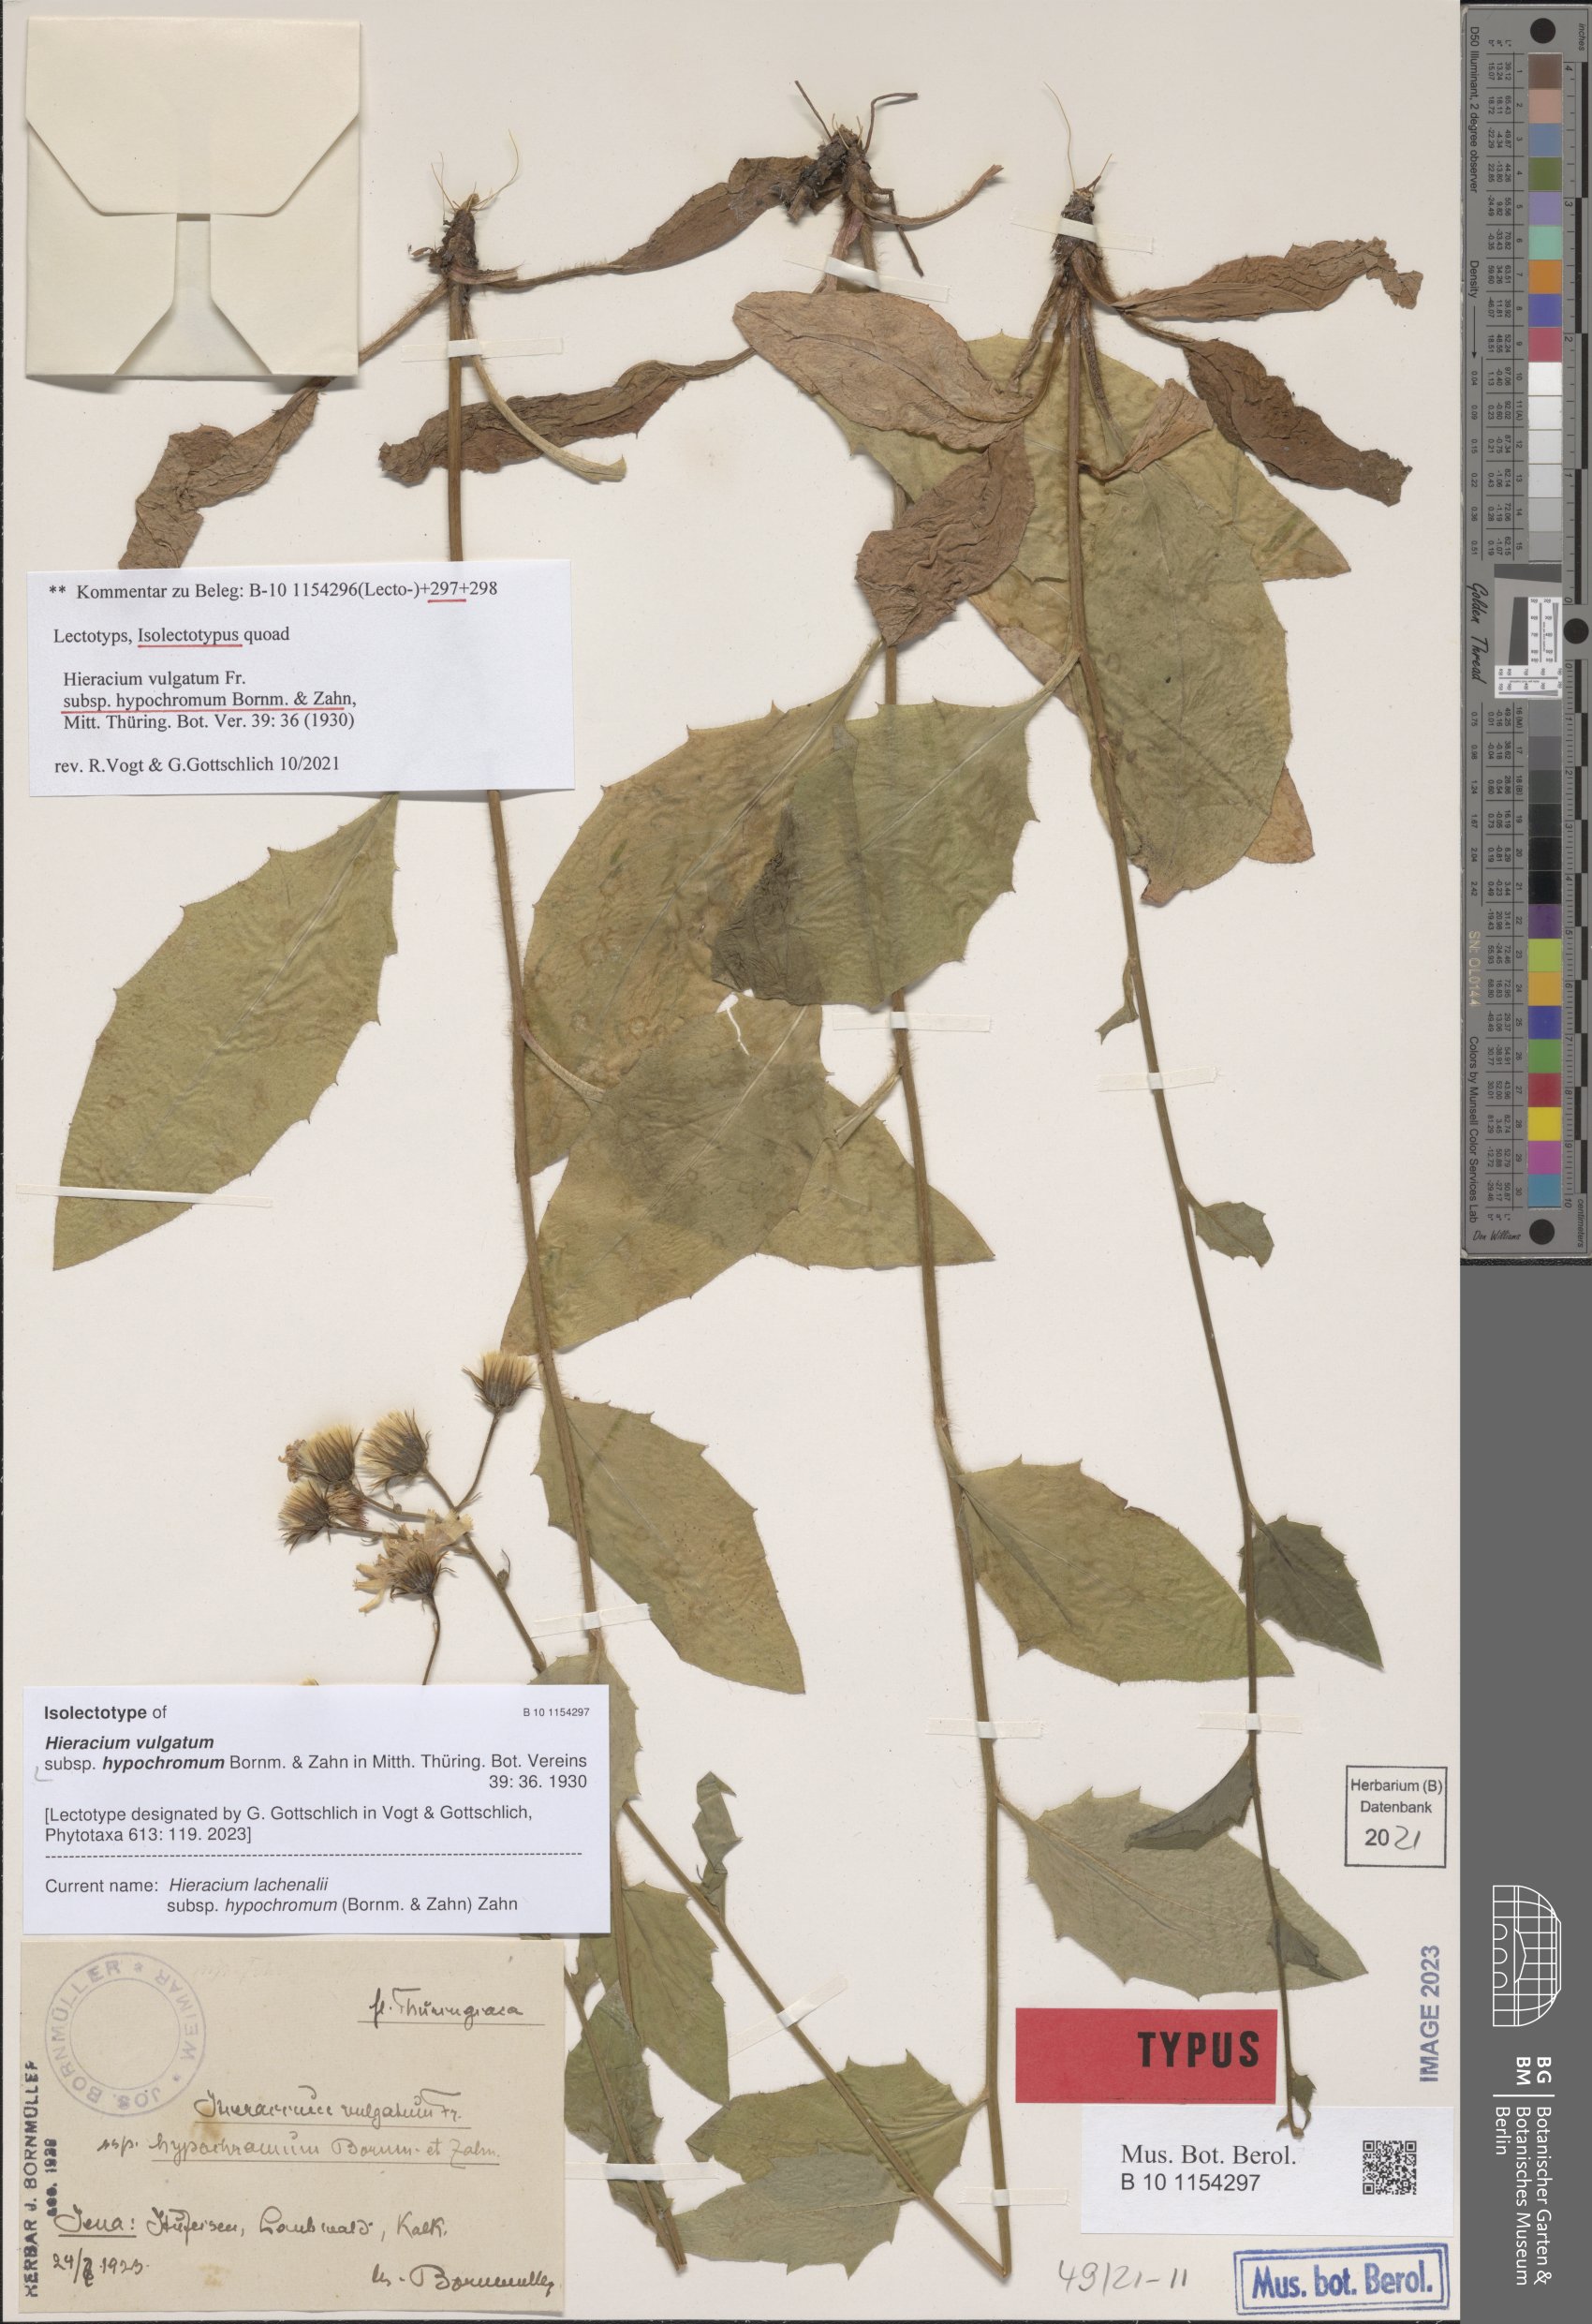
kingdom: Plantae
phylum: Tracheophyta
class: Magnoliopsida
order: Asterales
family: Asteraceae
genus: Hieracium
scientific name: Hieracium lachenalii
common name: Common hawkweed
